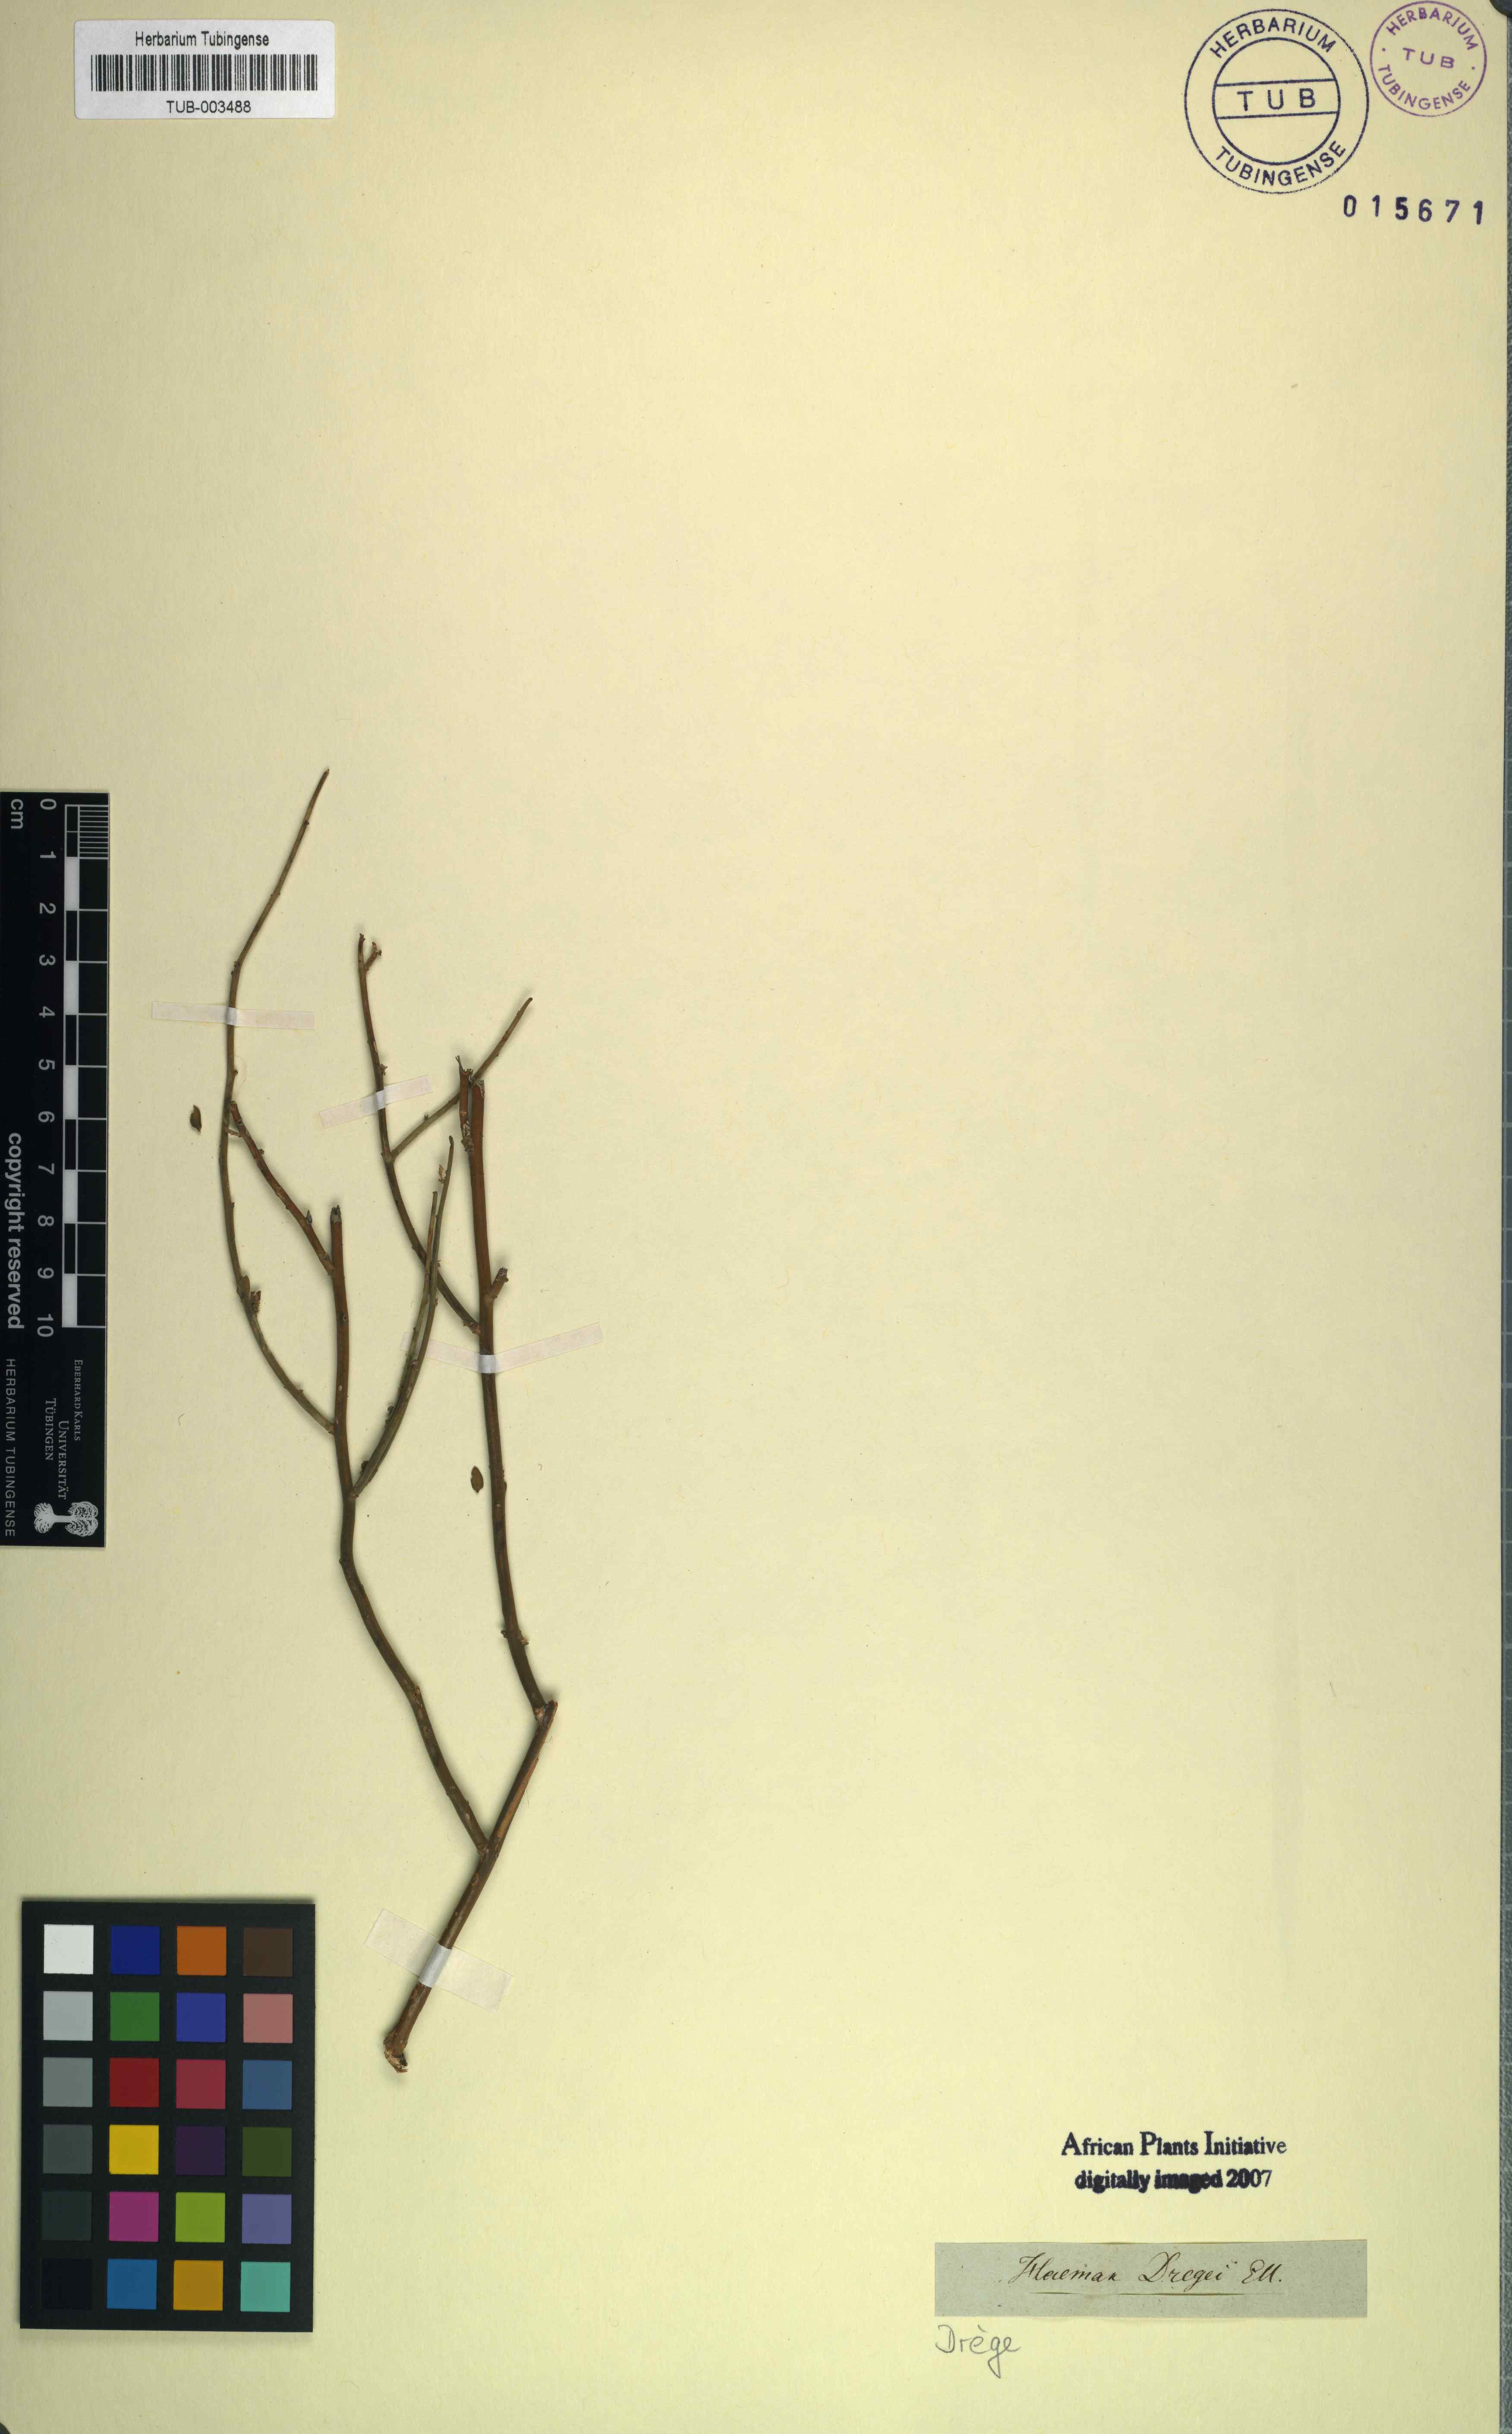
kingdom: Plantae
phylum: Tracheophyta
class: Magnoliopsida
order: Gentianales
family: Apocynaceae
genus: Microloma
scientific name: Microloma armatum
